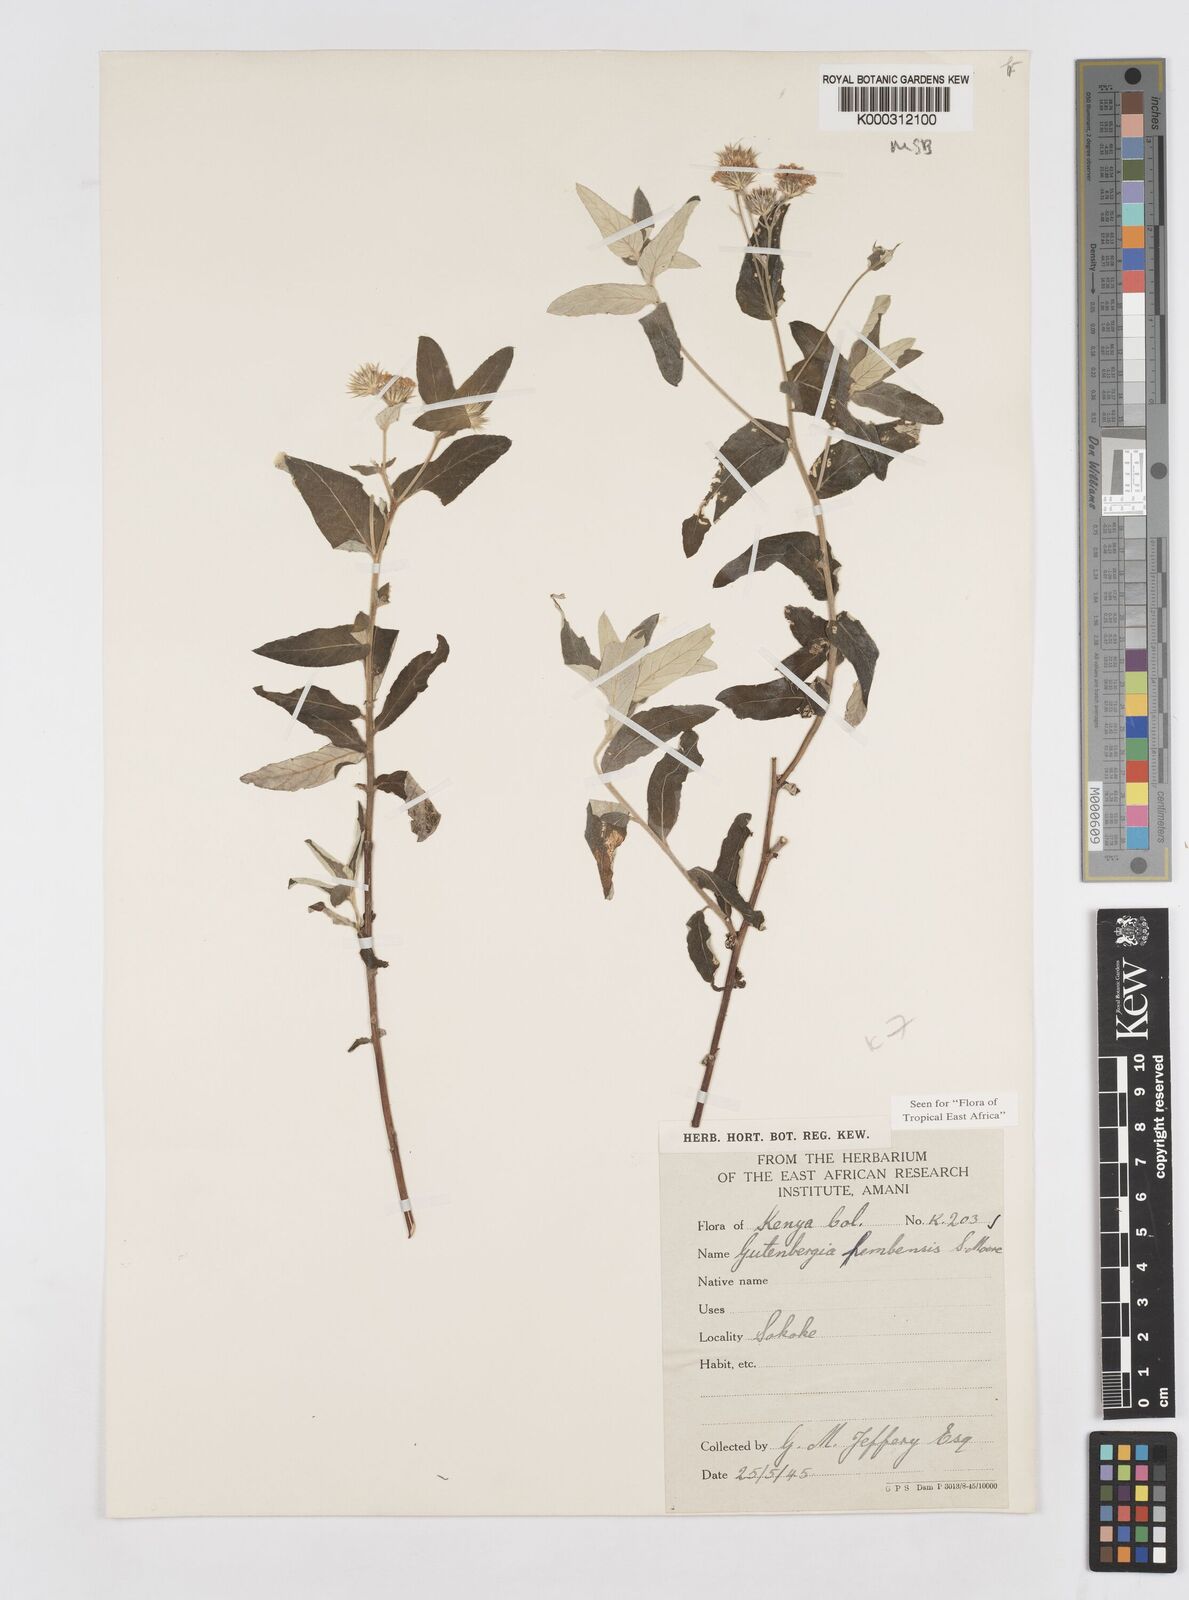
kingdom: Plantae
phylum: Tracheophyta
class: Magnoliopsida
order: Asterales
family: Asteraceae
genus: Gutenbergia
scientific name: Gutenbergia pembensis
